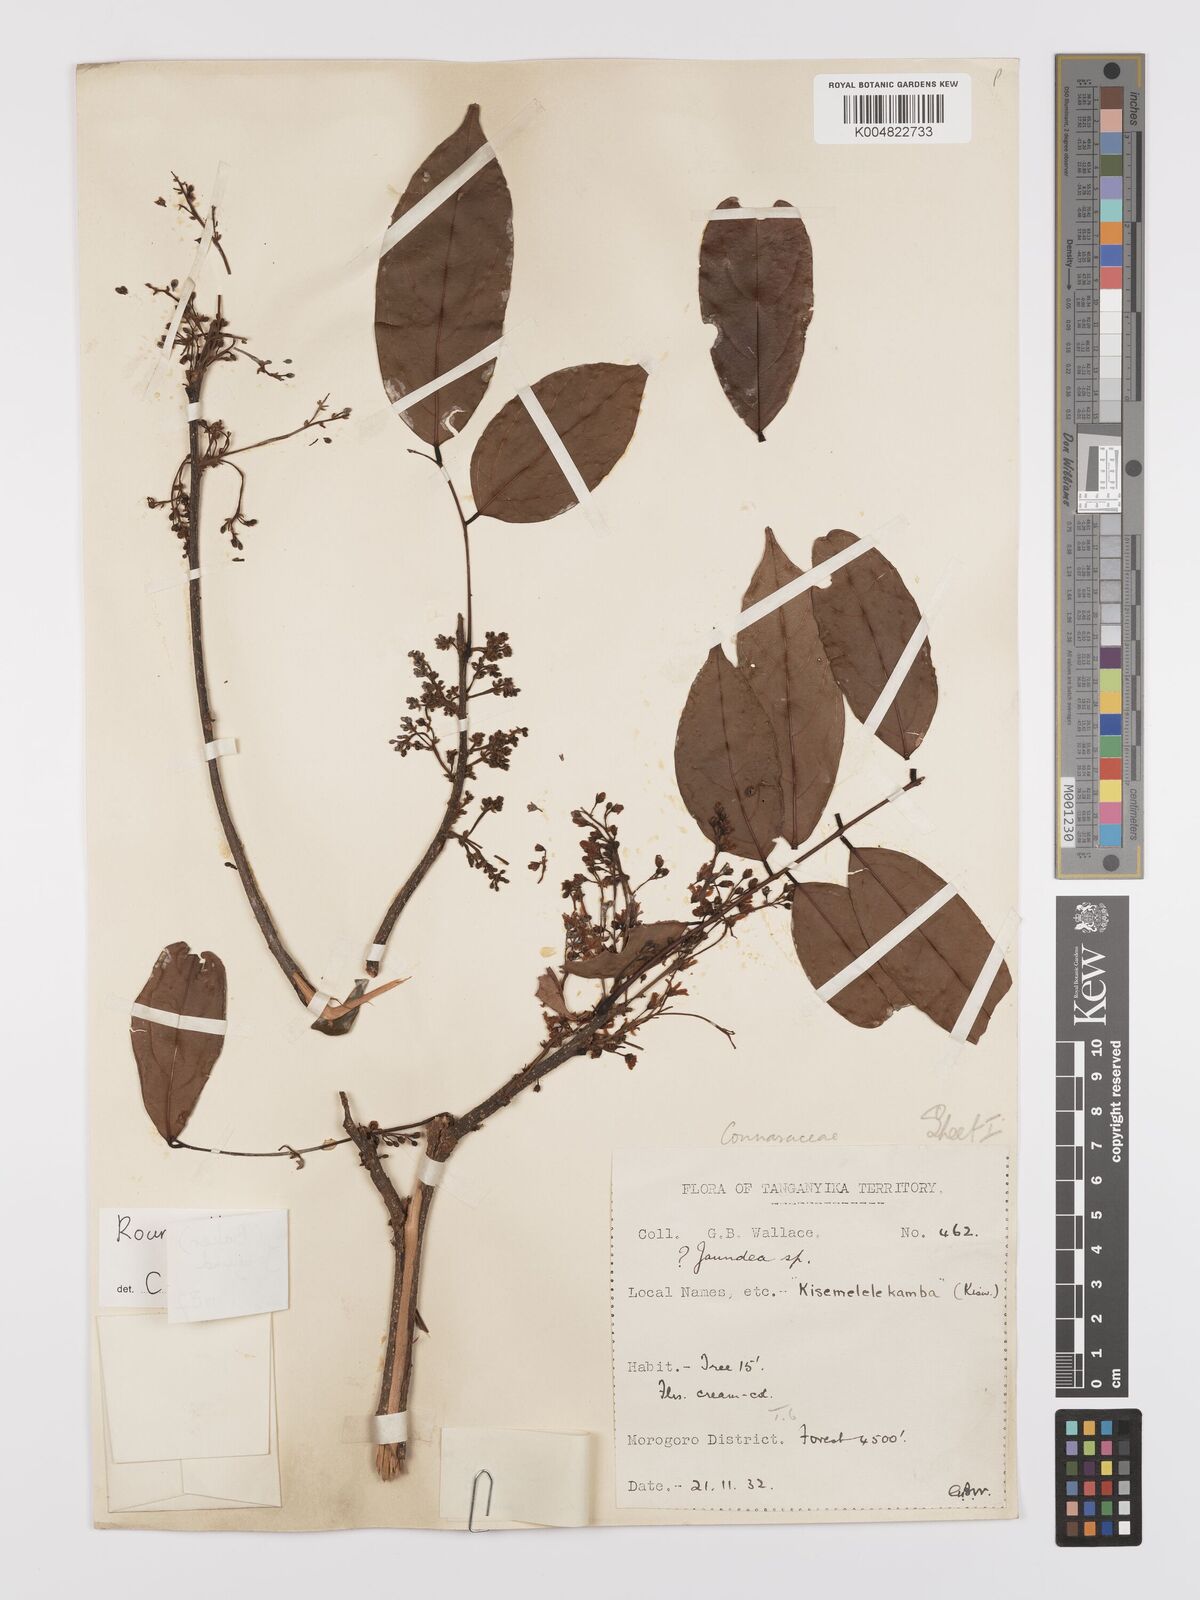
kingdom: Plantae
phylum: Tracheophyta
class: Magnoliopsida
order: Oxalidales
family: Connaraceae
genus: Rourea
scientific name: Rourea pinnata
